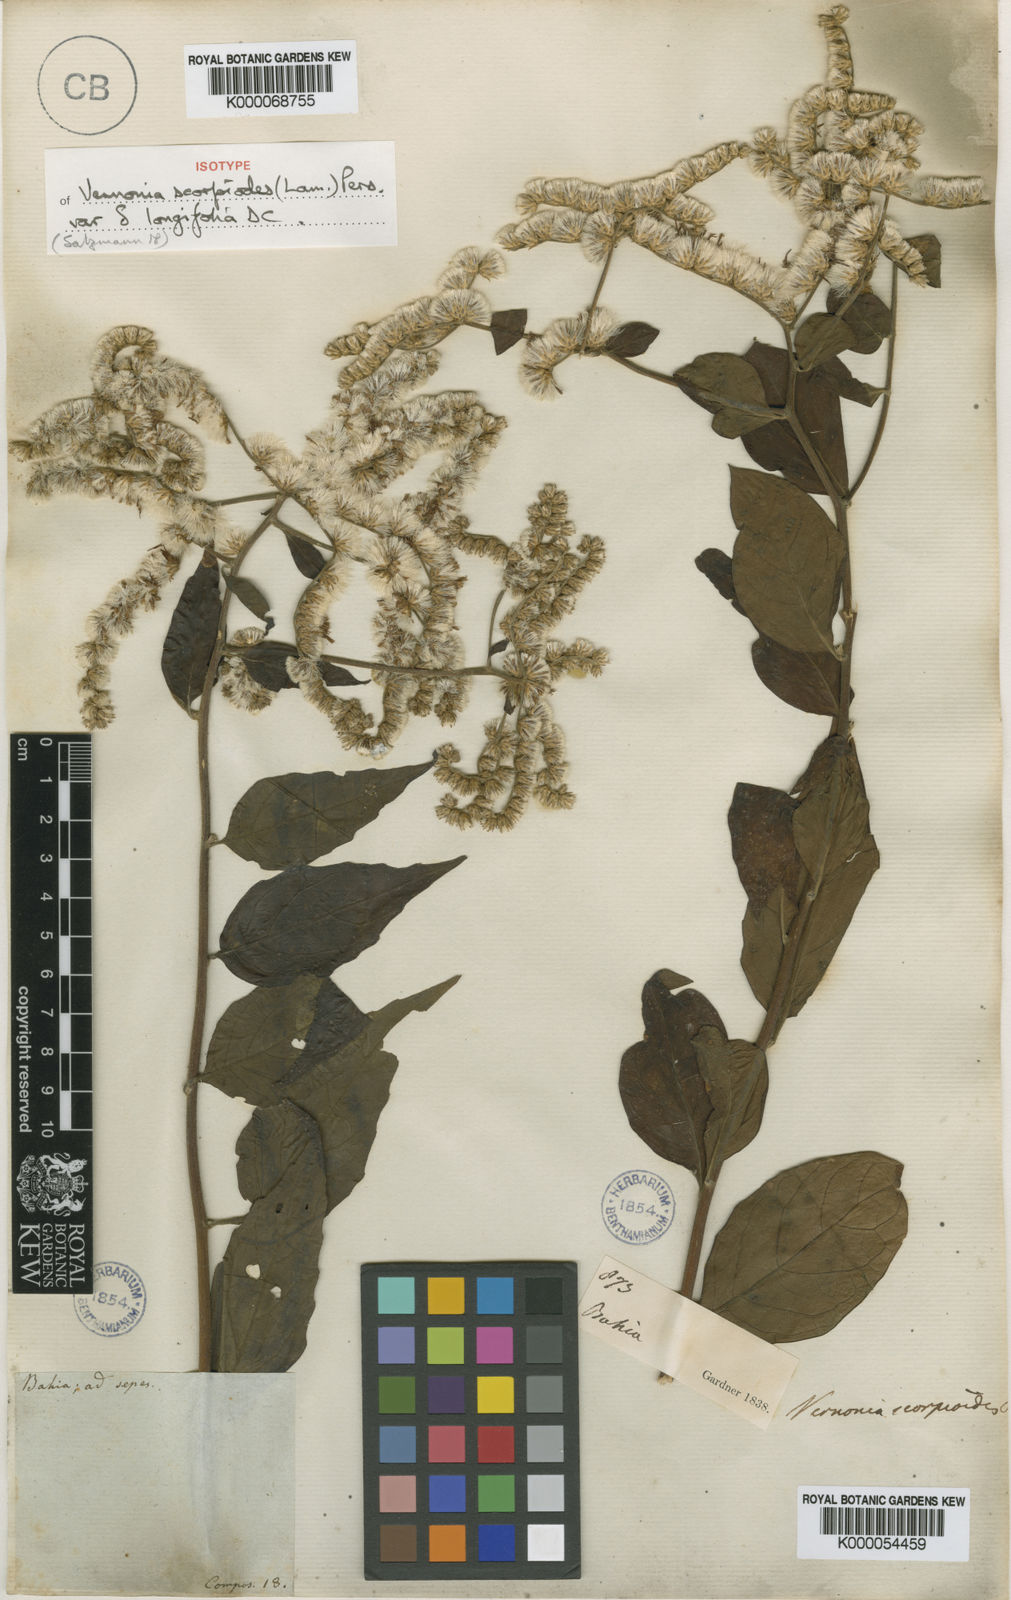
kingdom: Plantae
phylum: Tracheophyta
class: Magnoliopsida
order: Asterales
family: Asteraceae
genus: Cyrtocymura
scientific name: Cyrtocymura scorpioides
